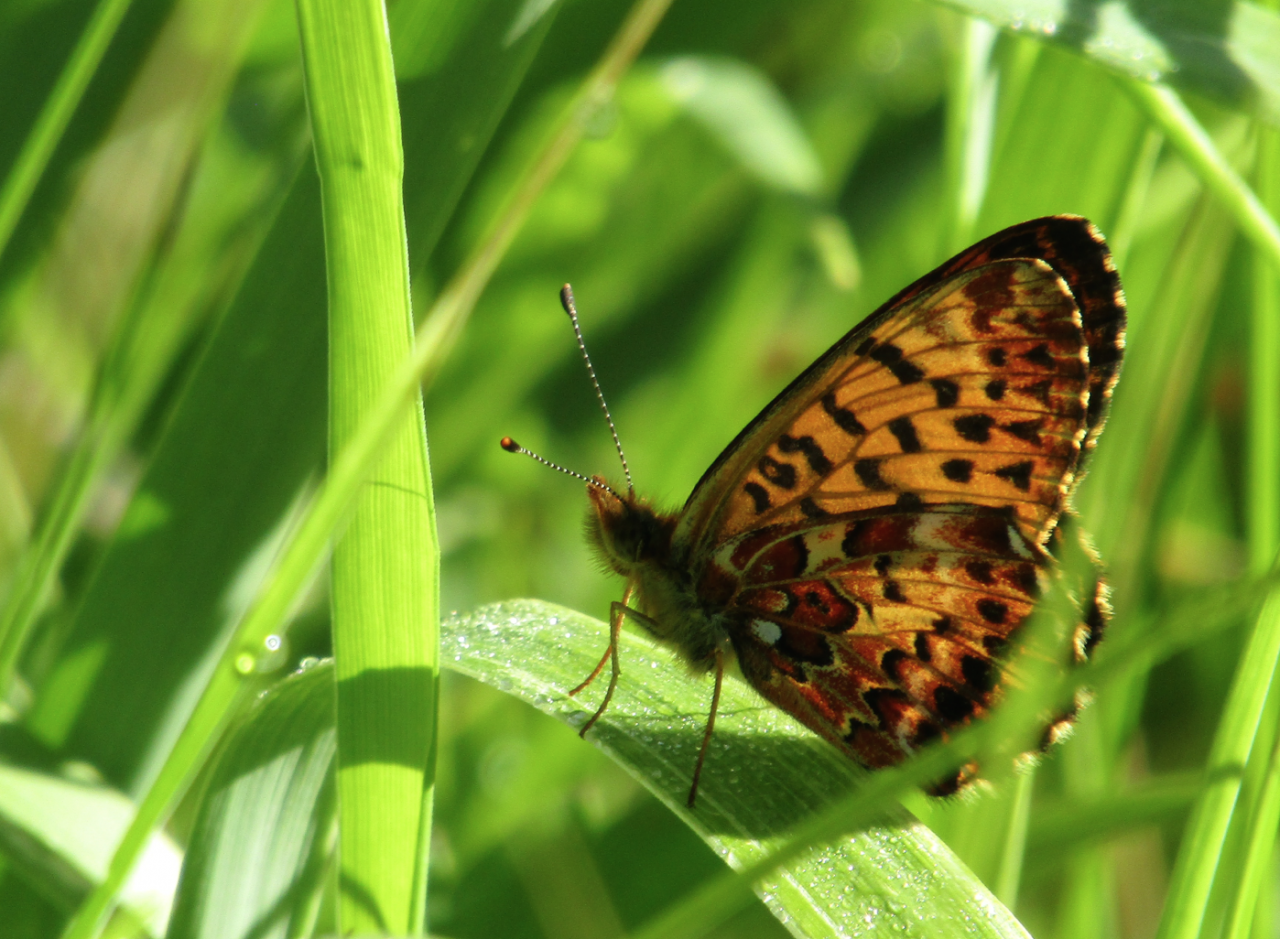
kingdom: Animalia
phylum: Arthropoda
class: Insecta
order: Lepidoptera
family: Nymphalidae
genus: Boloria
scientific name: Boloria chariclea
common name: Arctic Fritillary
